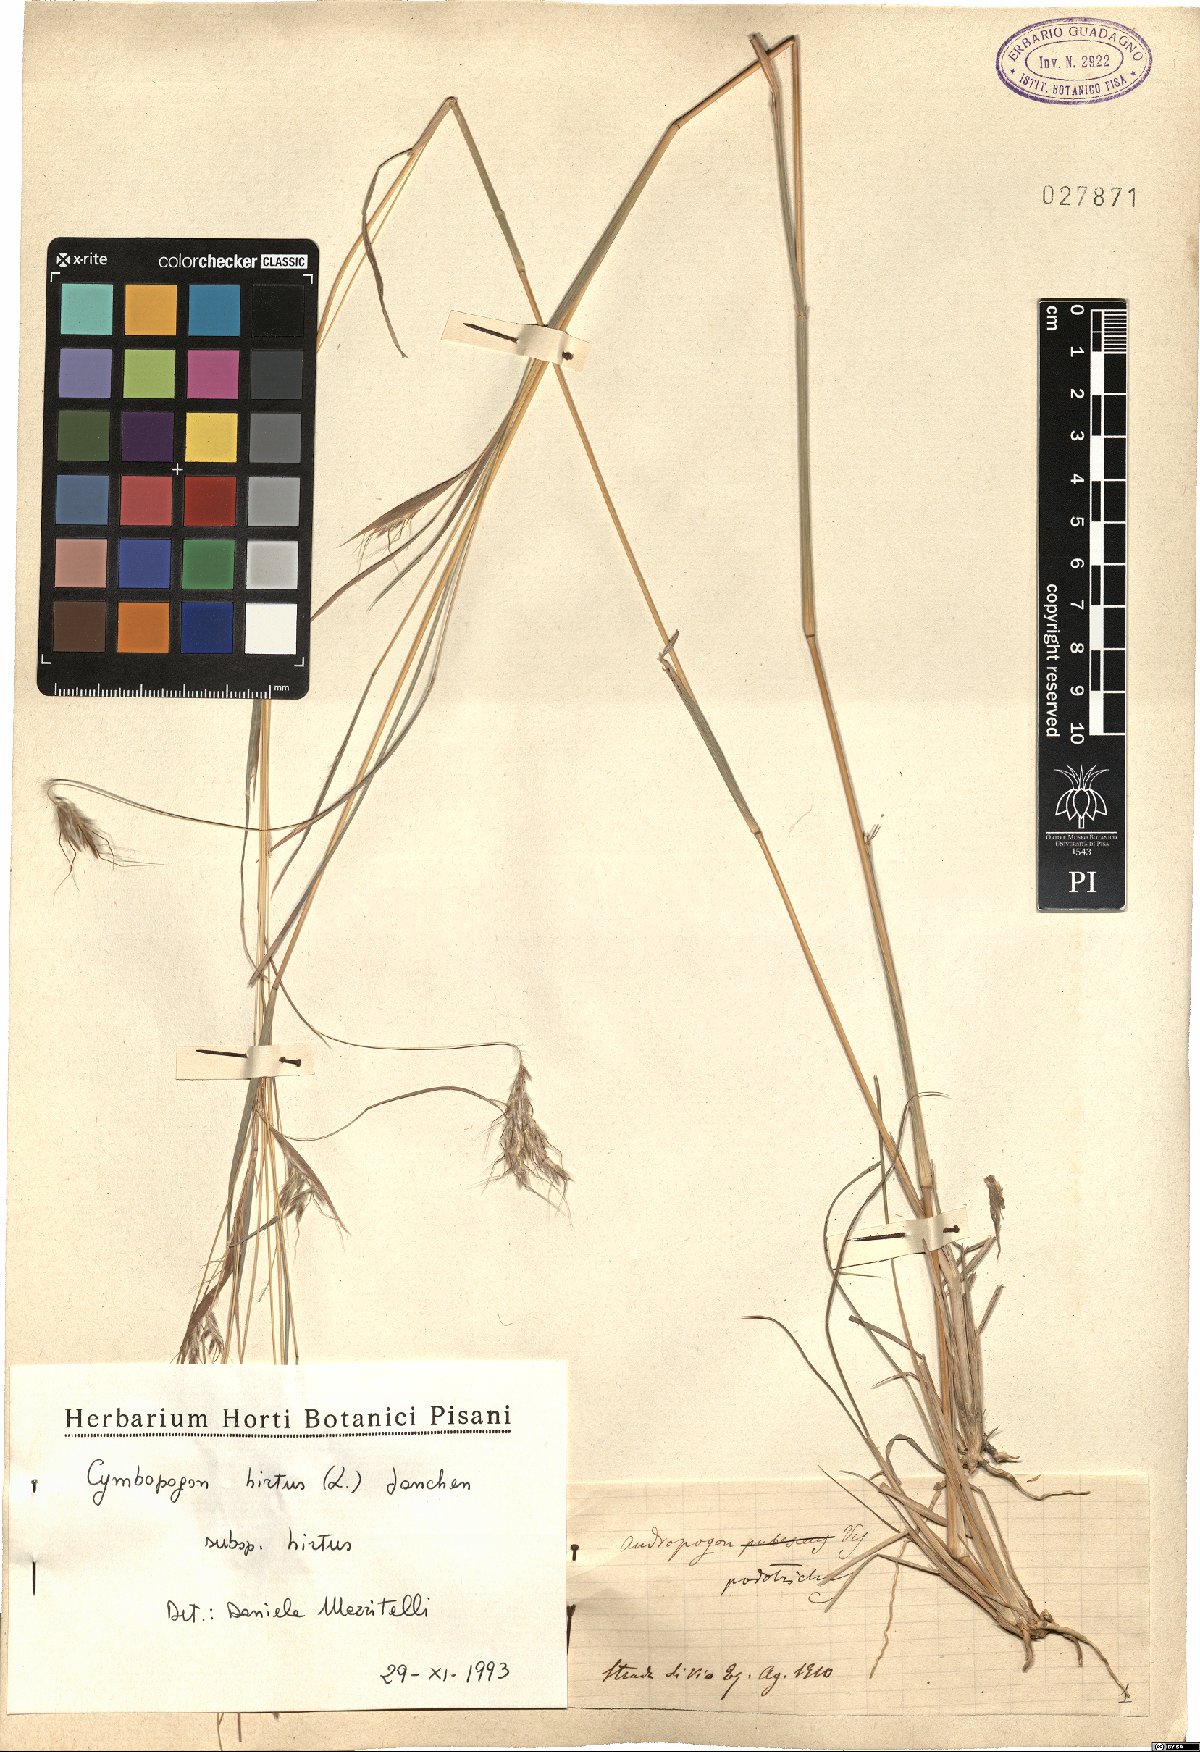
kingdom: Plantae
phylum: Tracheophyta
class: Liliopsida
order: Poales
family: Poaceae
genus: Hyparrhenia
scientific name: Hyparrhenia hirta
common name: Thatching grass
